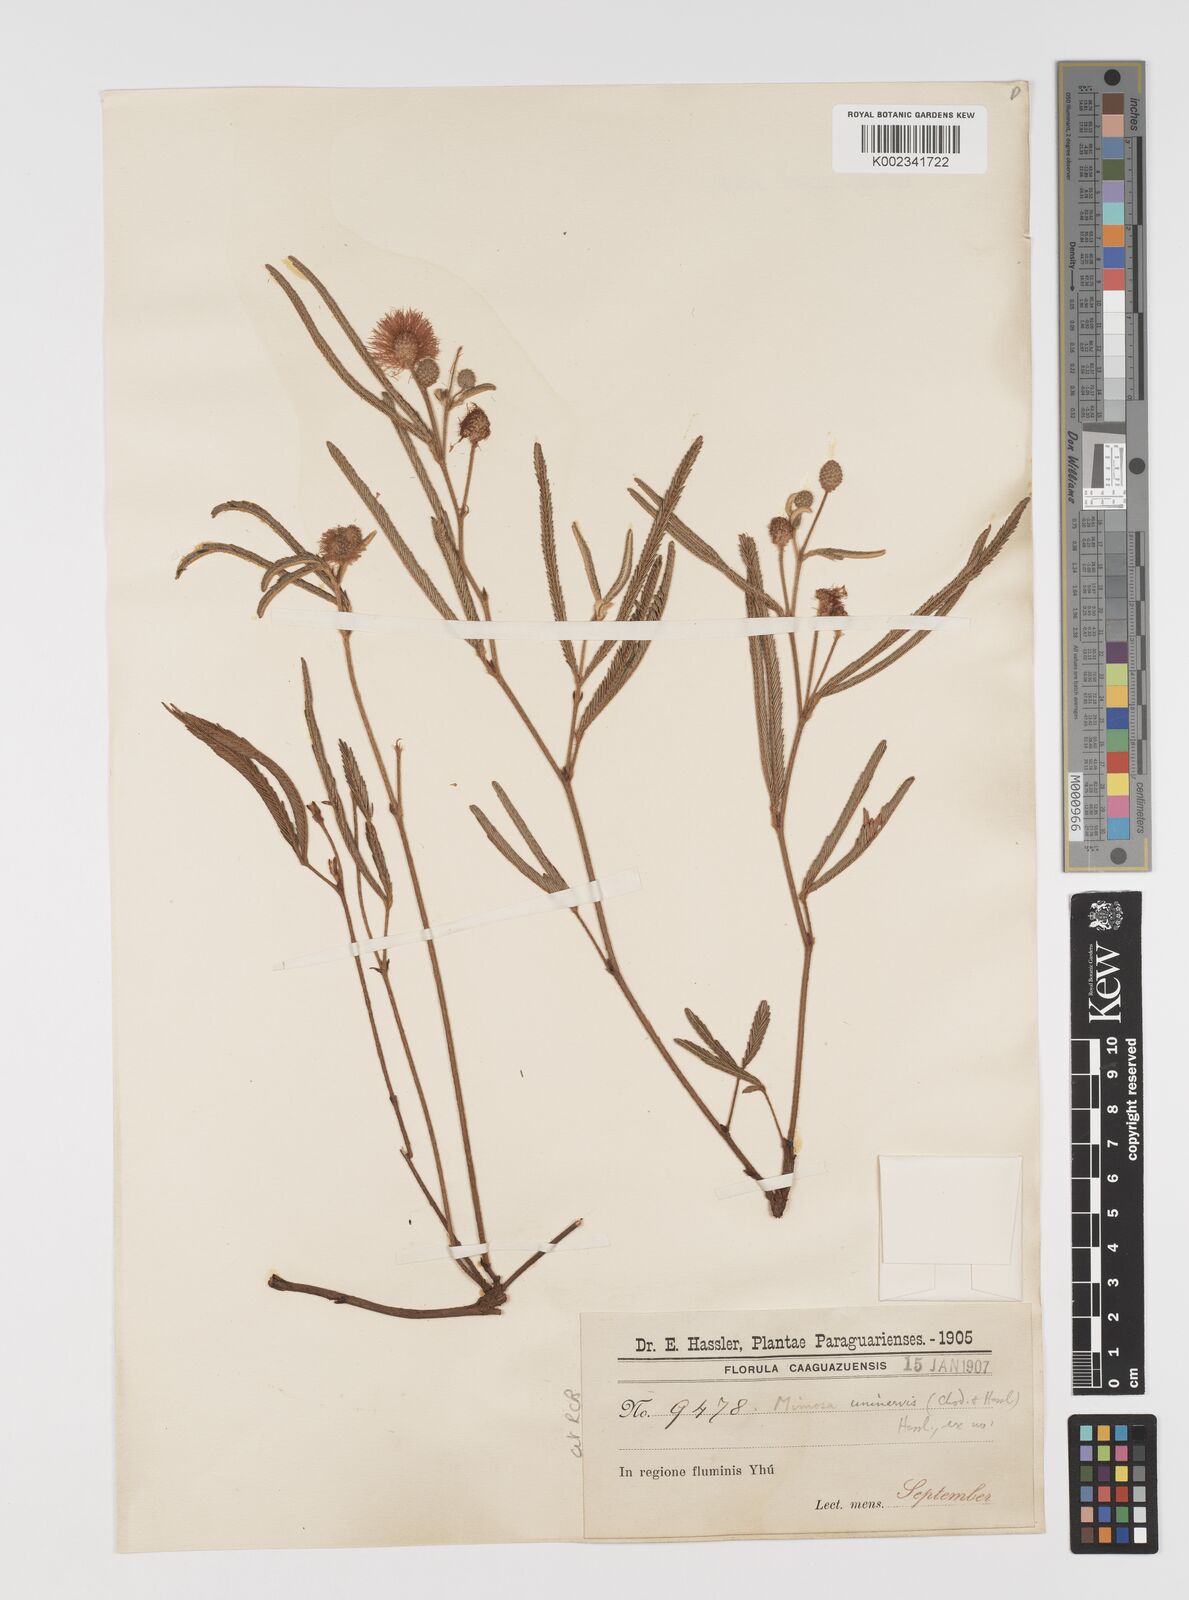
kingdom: Plantae
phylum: Tracheophyta
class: Magnoliopsida
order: Fabales
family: Fabaceae
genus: Mimosa
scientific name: Mimosa uninervis
